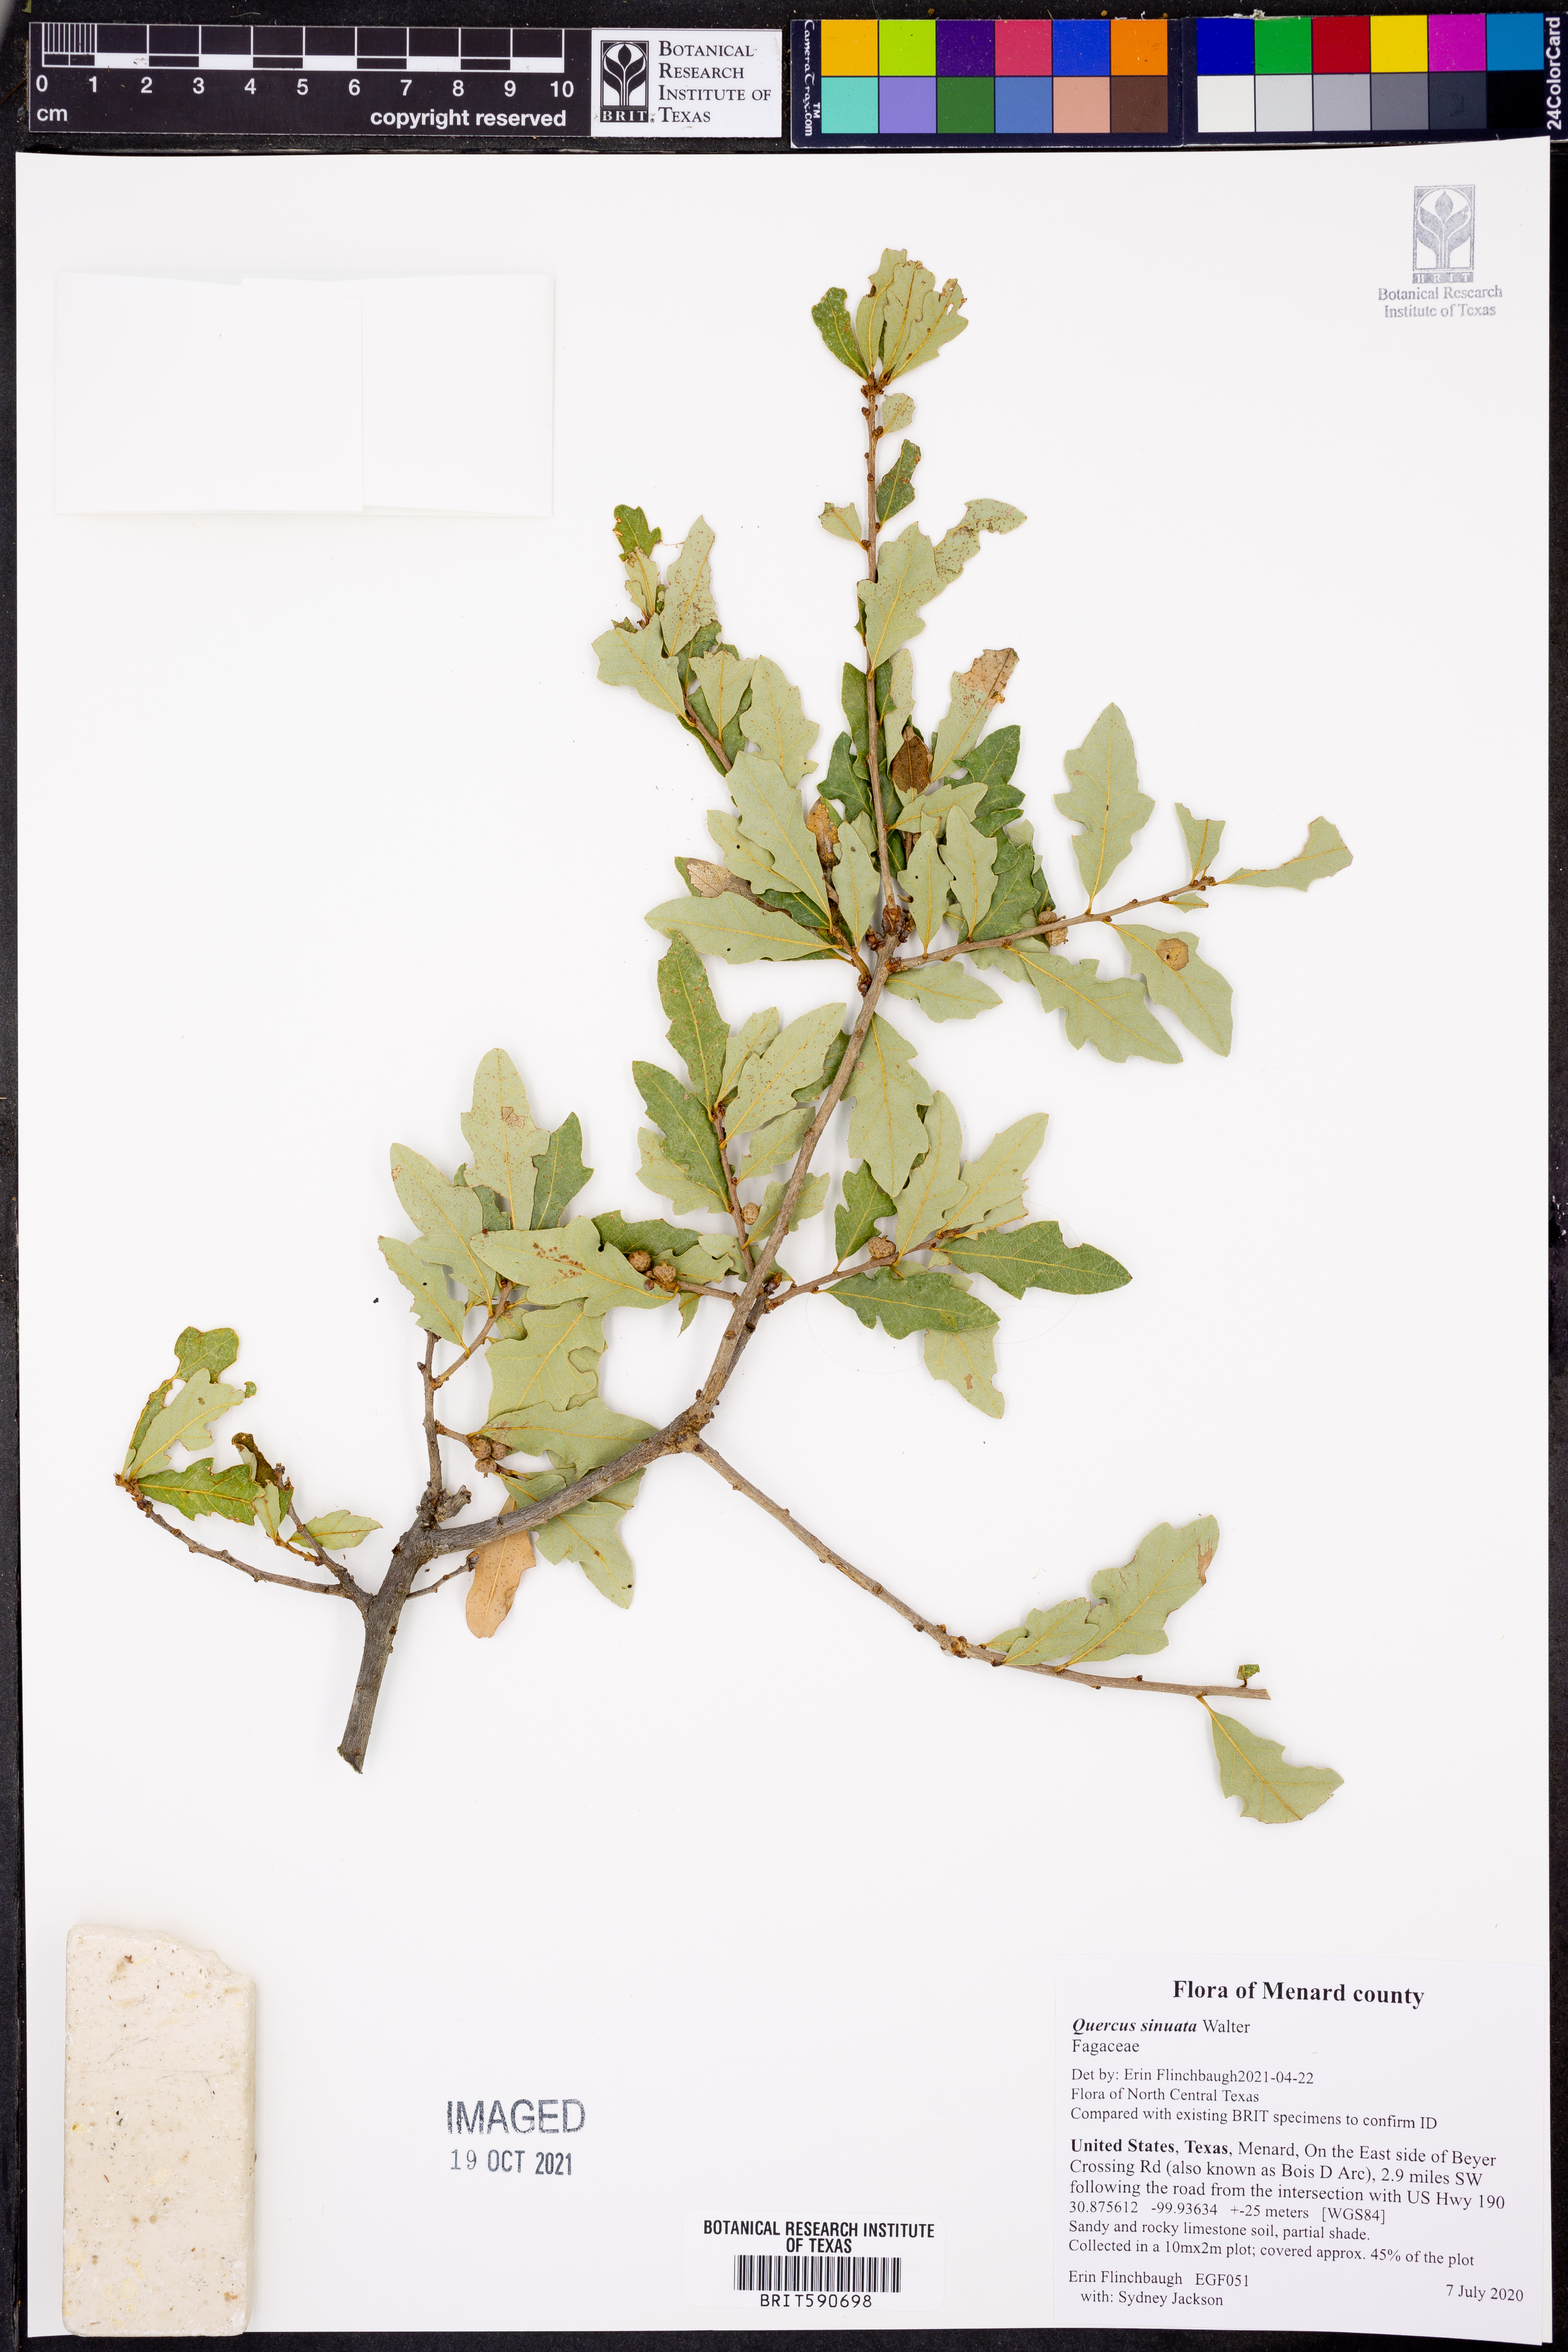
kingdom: Plantae
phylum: Tracheophyta
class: Magnoliopsida
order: Fagales
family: Fagaceae
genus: Quercus
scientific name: Quercus sinuata
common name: Durand oak
